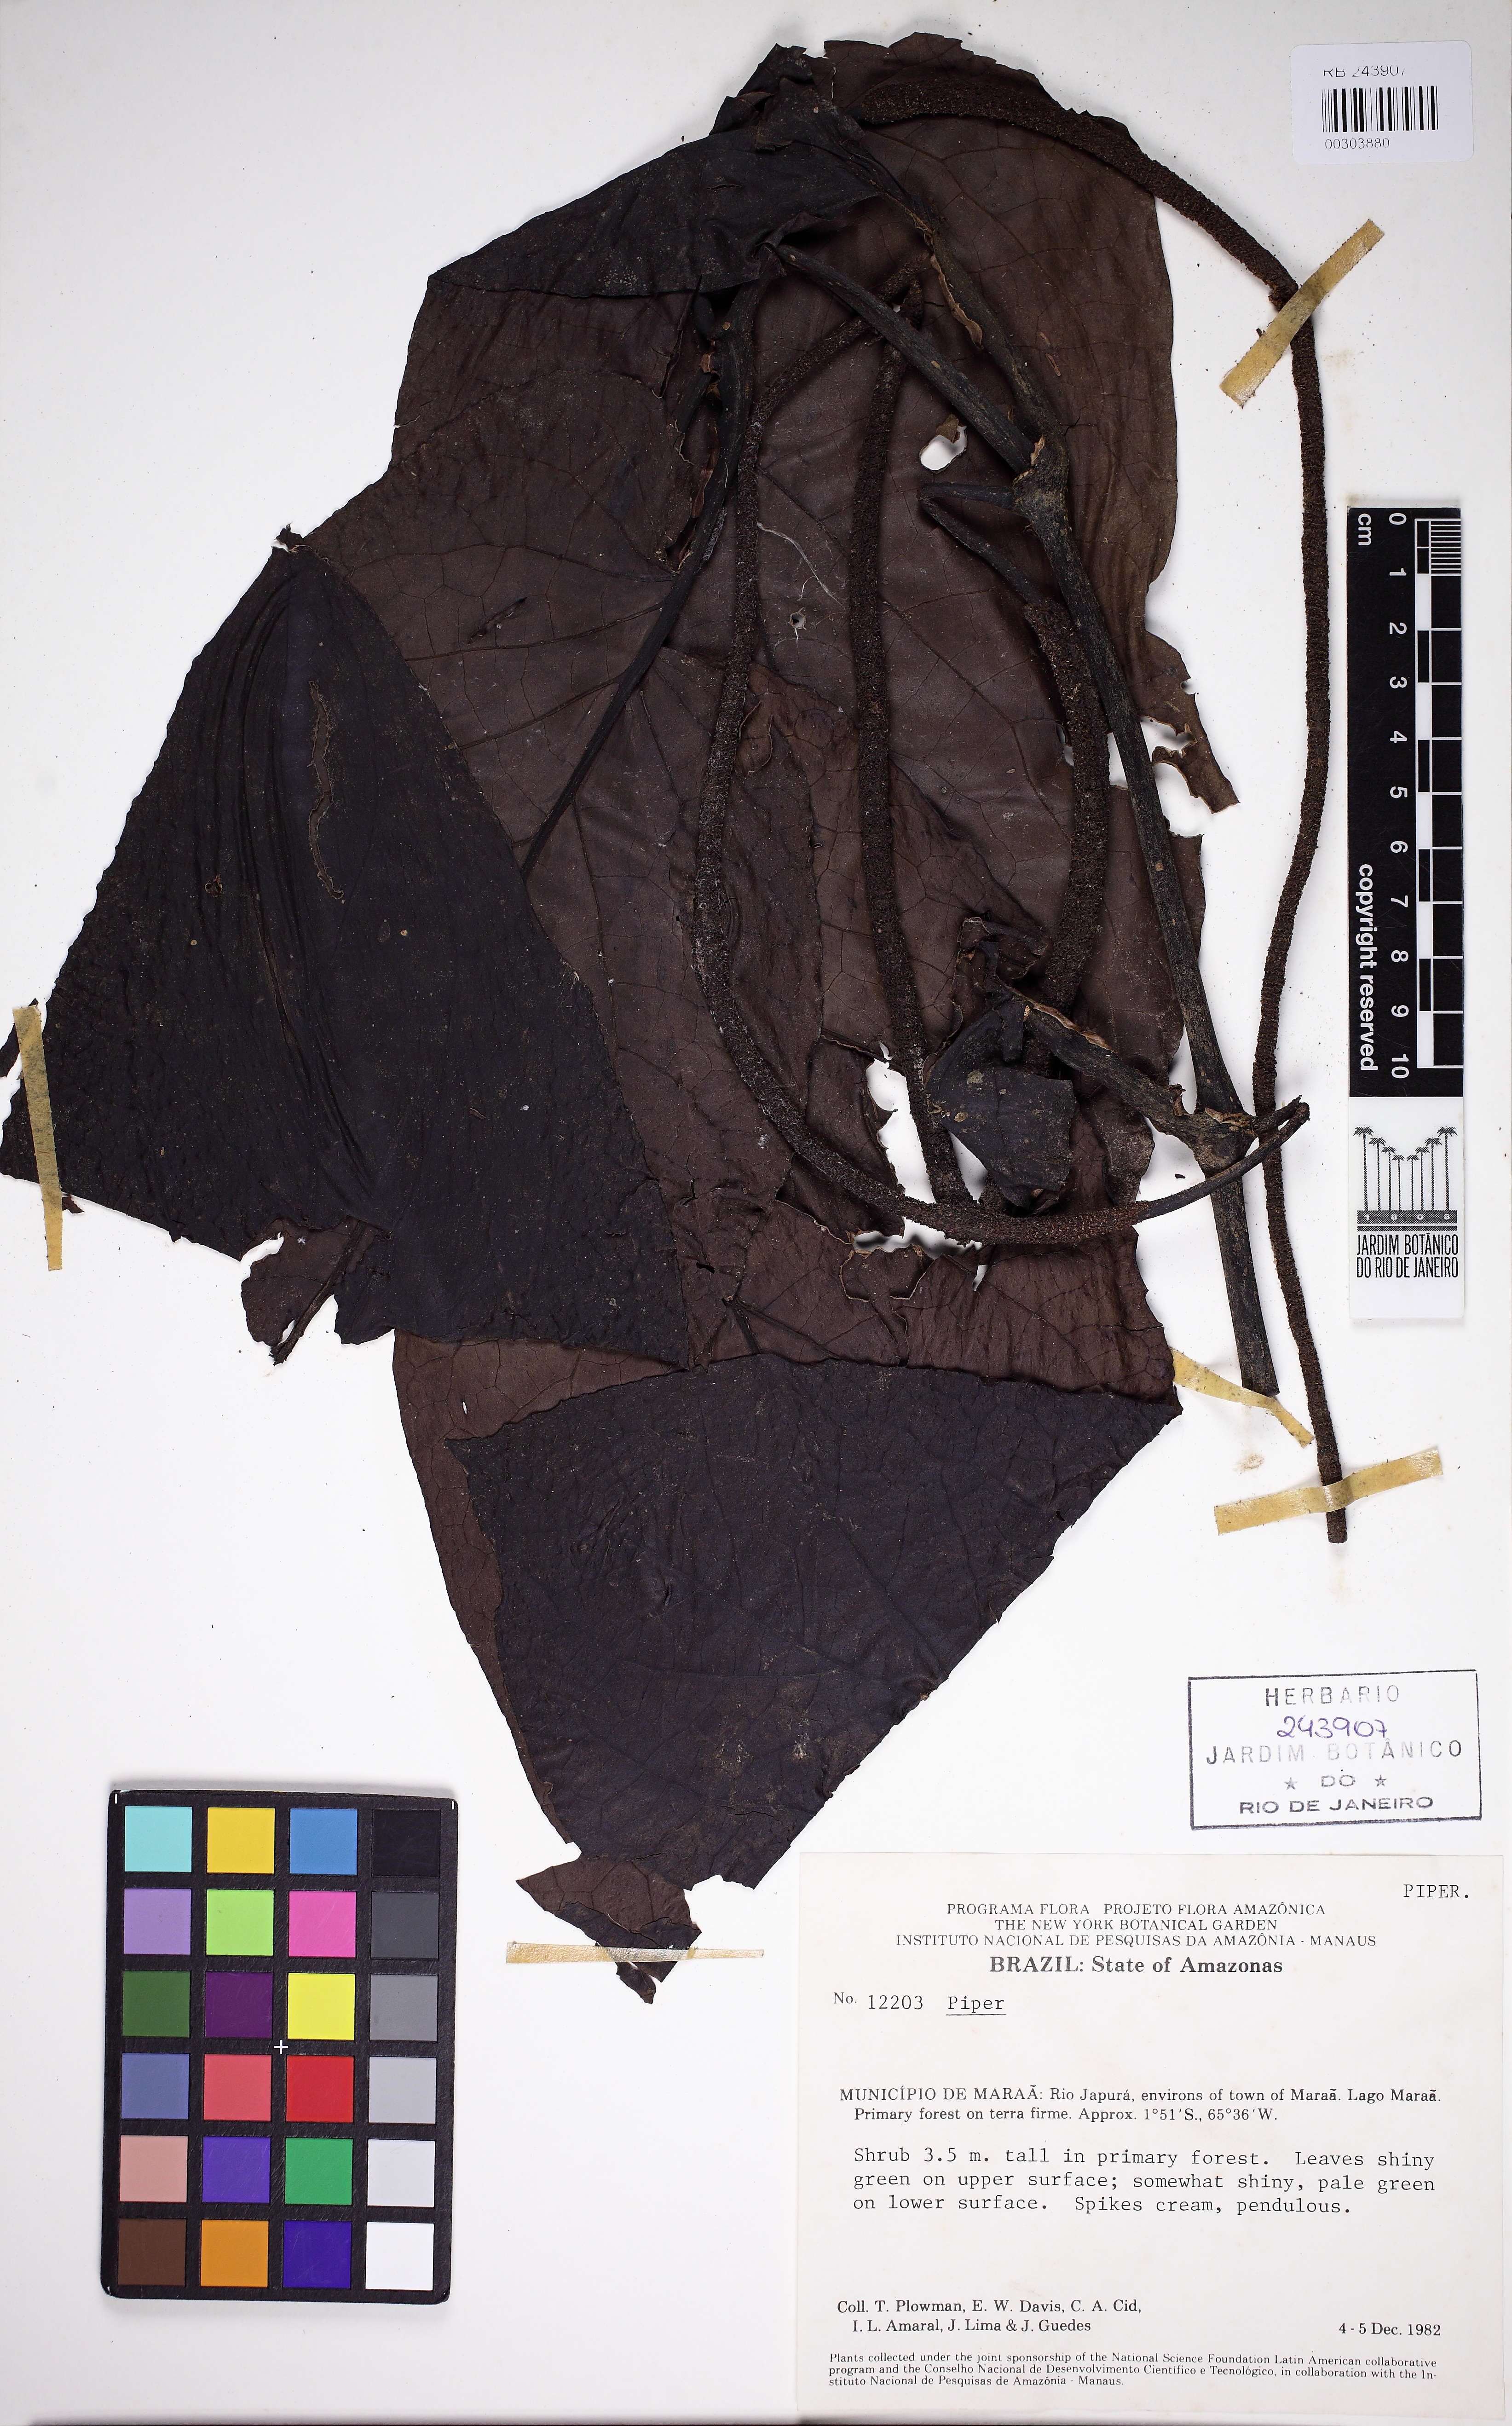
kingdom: Plantae
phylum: Tracheophyta
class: Magnoliopsida
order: Piperales
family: Piperaceae
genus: Peperomia
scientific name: Peperomia
